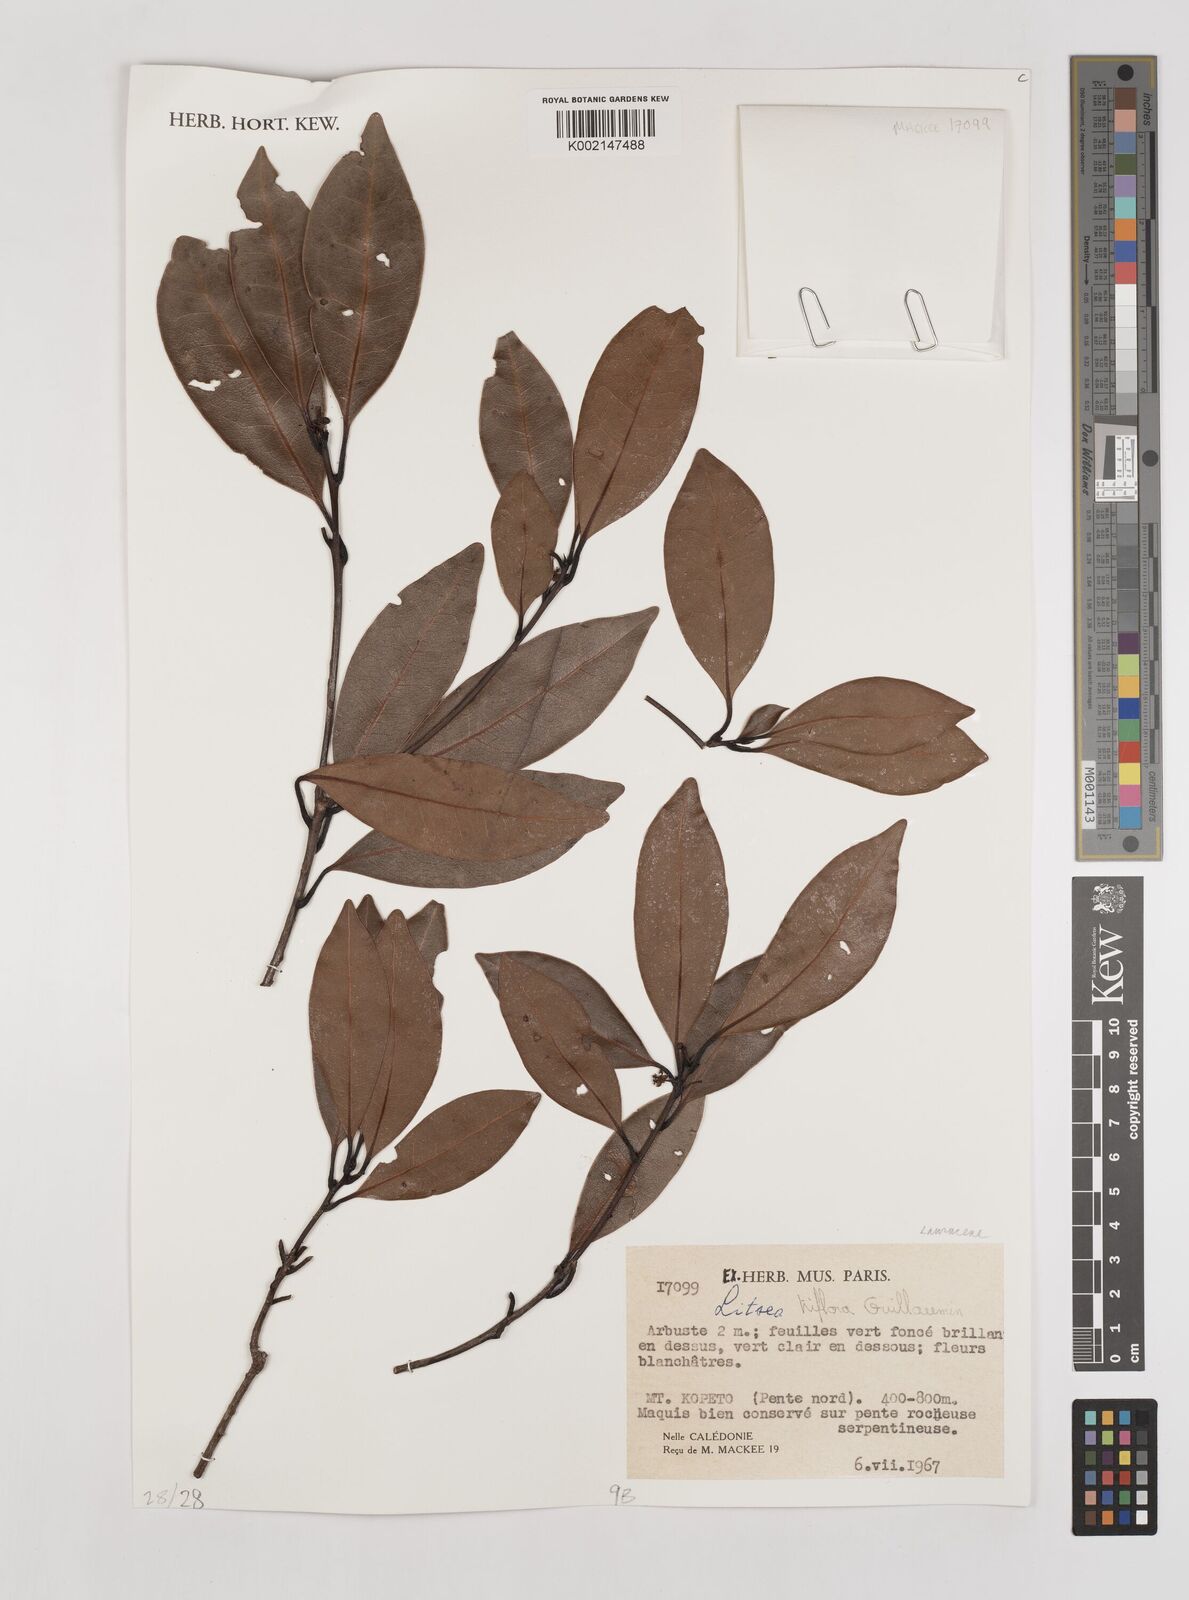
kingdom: Plantae
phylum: Tracheophyta
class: Magnoliopsida
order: Laurales
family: Lauraceae
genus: Litsea
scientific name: Litsea triflora
